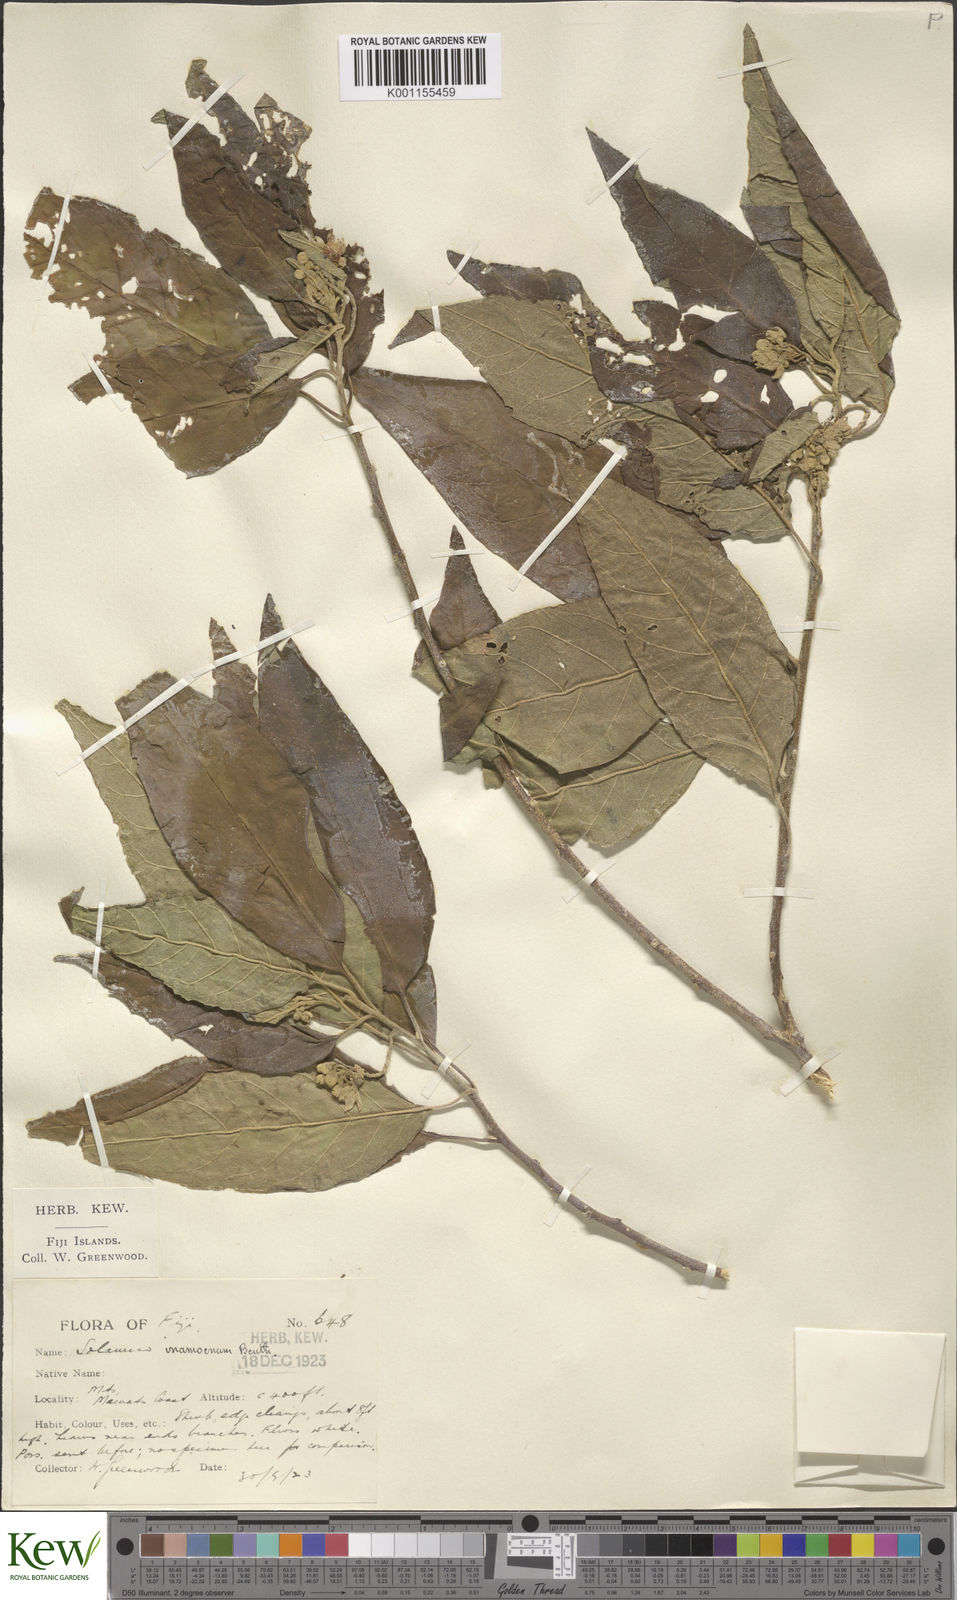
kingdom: Plantae
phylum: Tracheophyta
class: Magnoliopsida
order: Solanales
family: Solanaceae
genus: Solanum
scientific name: Solanum inamoenum
